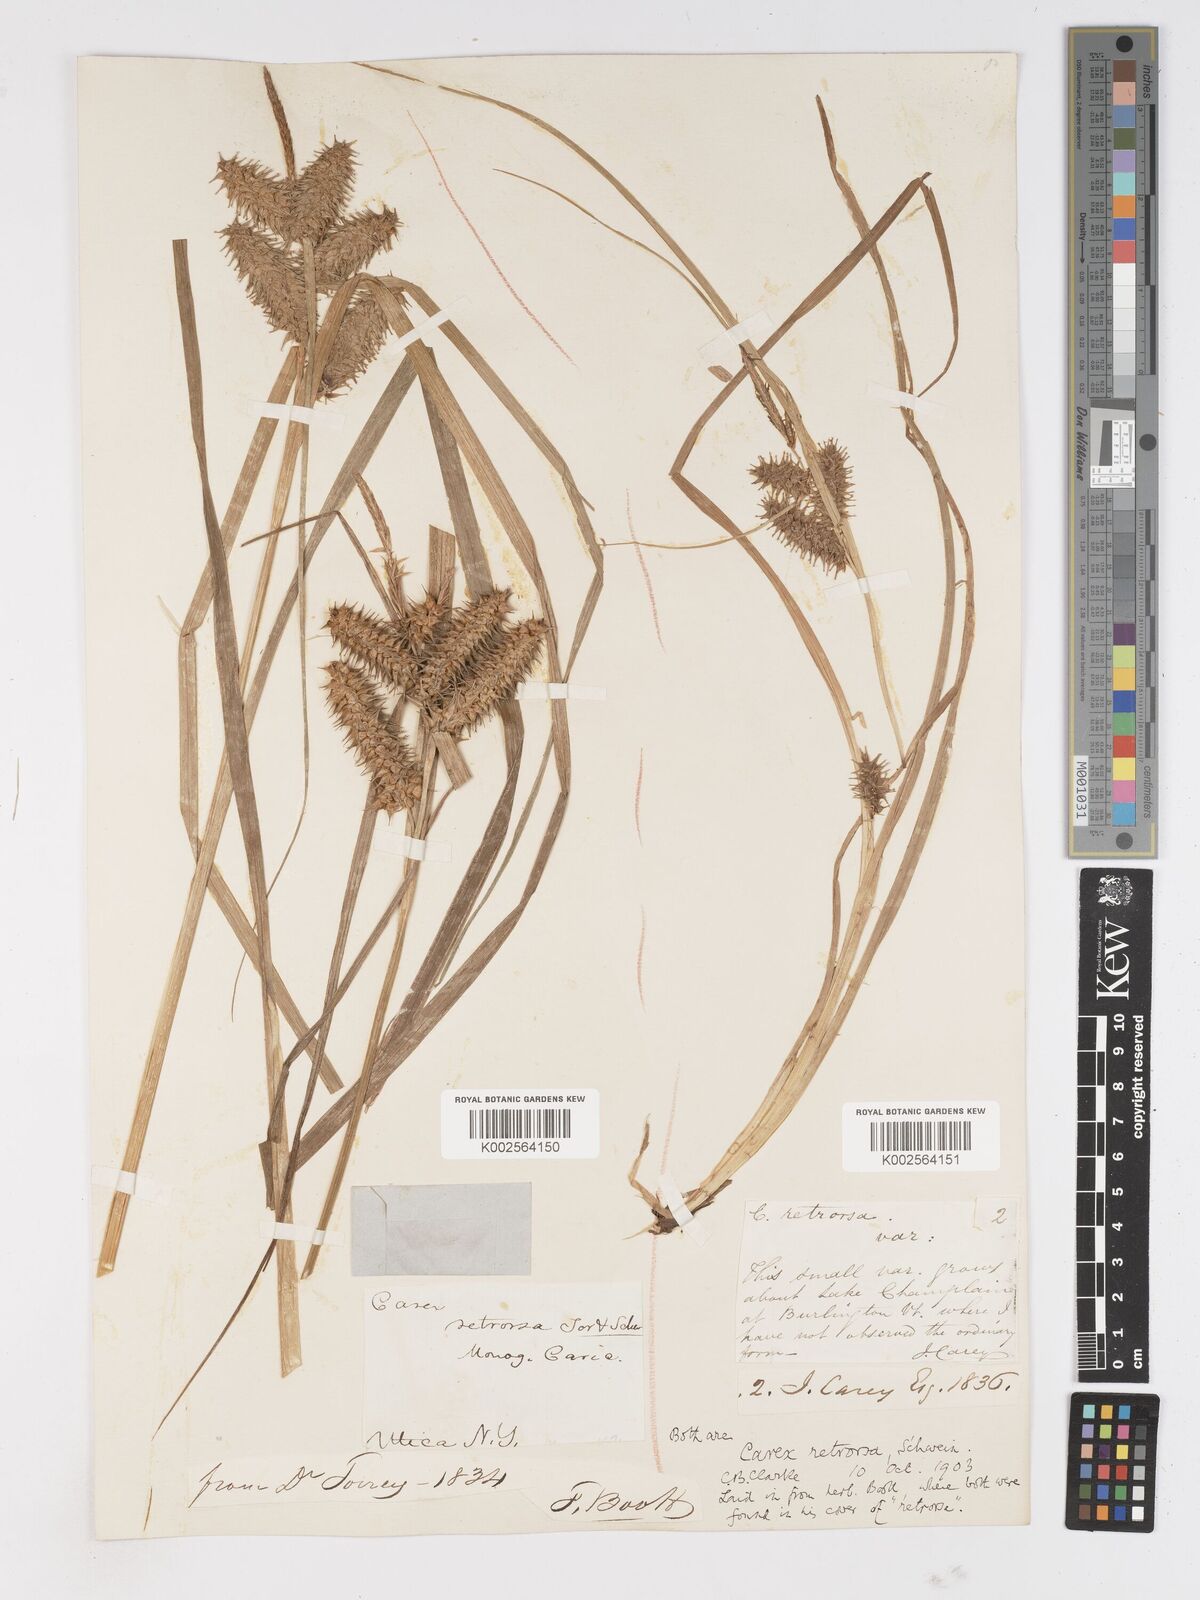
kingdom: Plantae
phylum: Tracheophyta
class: Liliopsida
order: Poales
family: Cyperaceae
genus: Carex
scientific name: Carex retrorsa
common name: Knot-sheath sedge
